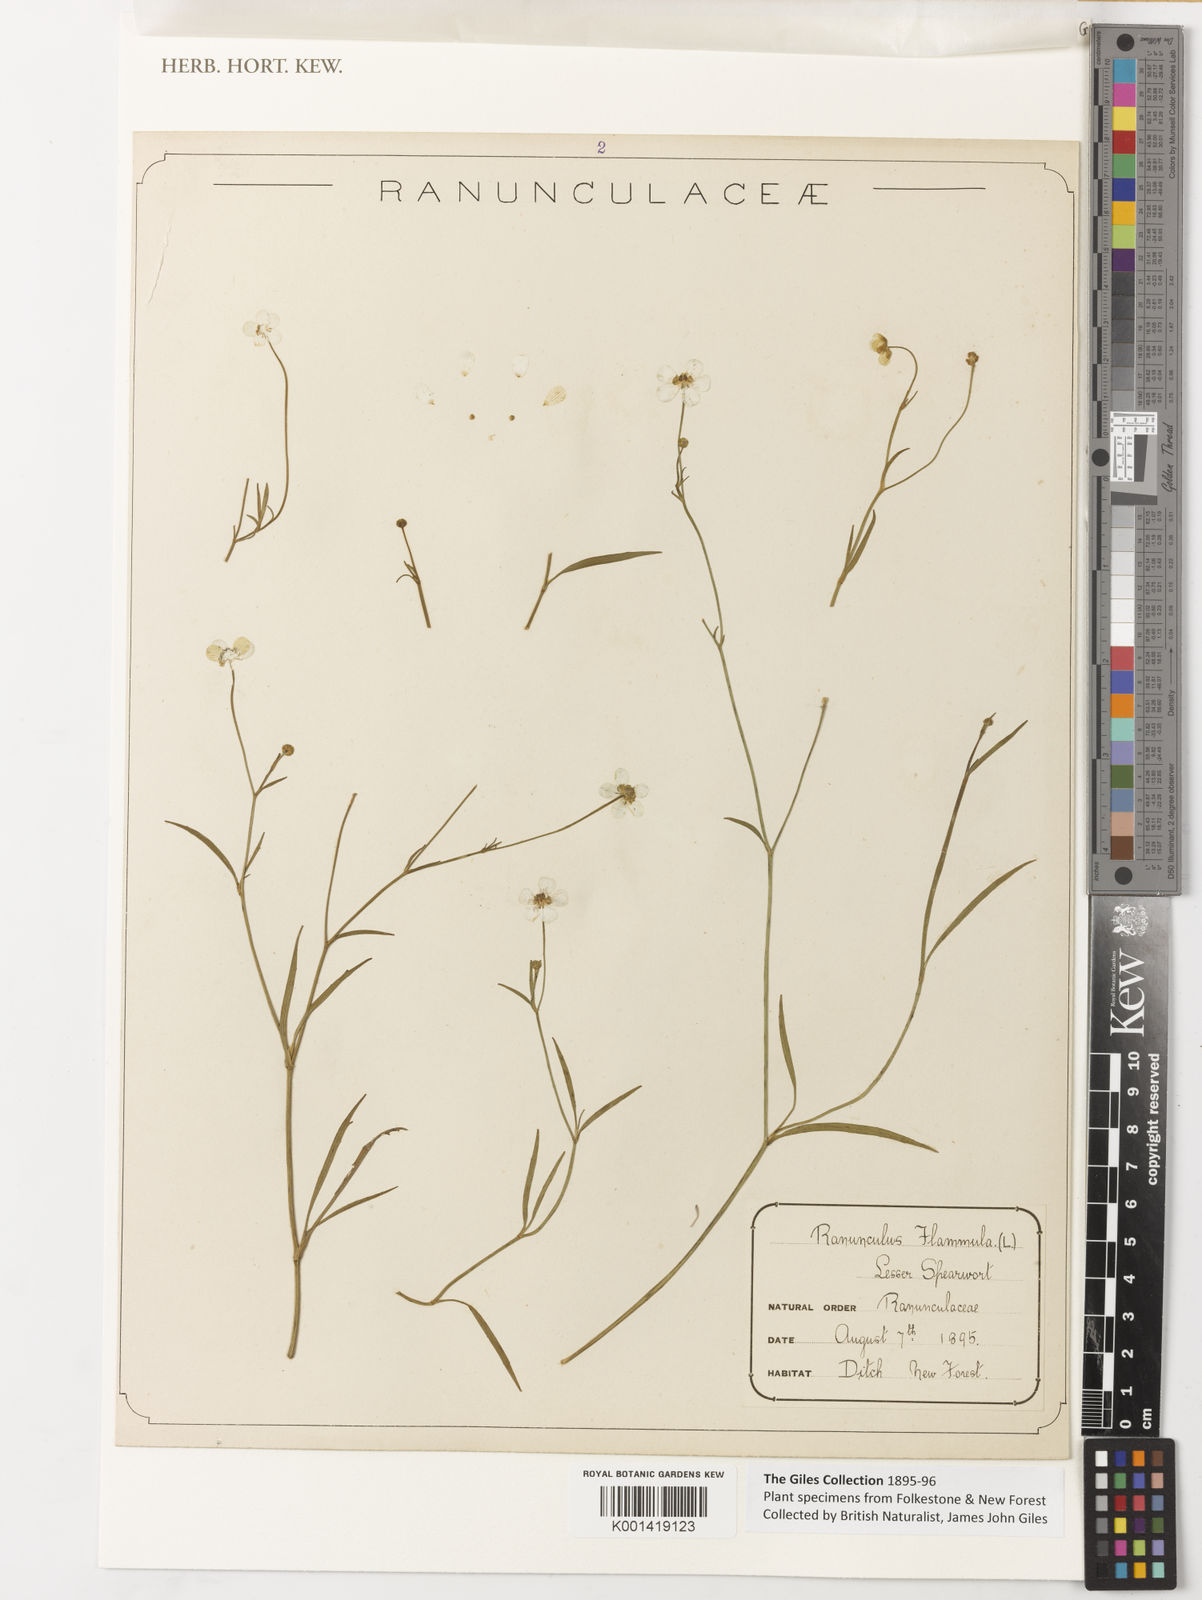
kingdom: Plantae
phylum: Tracheophyta
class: Magnoliopsida
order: Ranunculales
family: Ranunculaceae
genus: Ranunculus
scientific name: Ranunculus flammula
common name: Lesser spearwort
